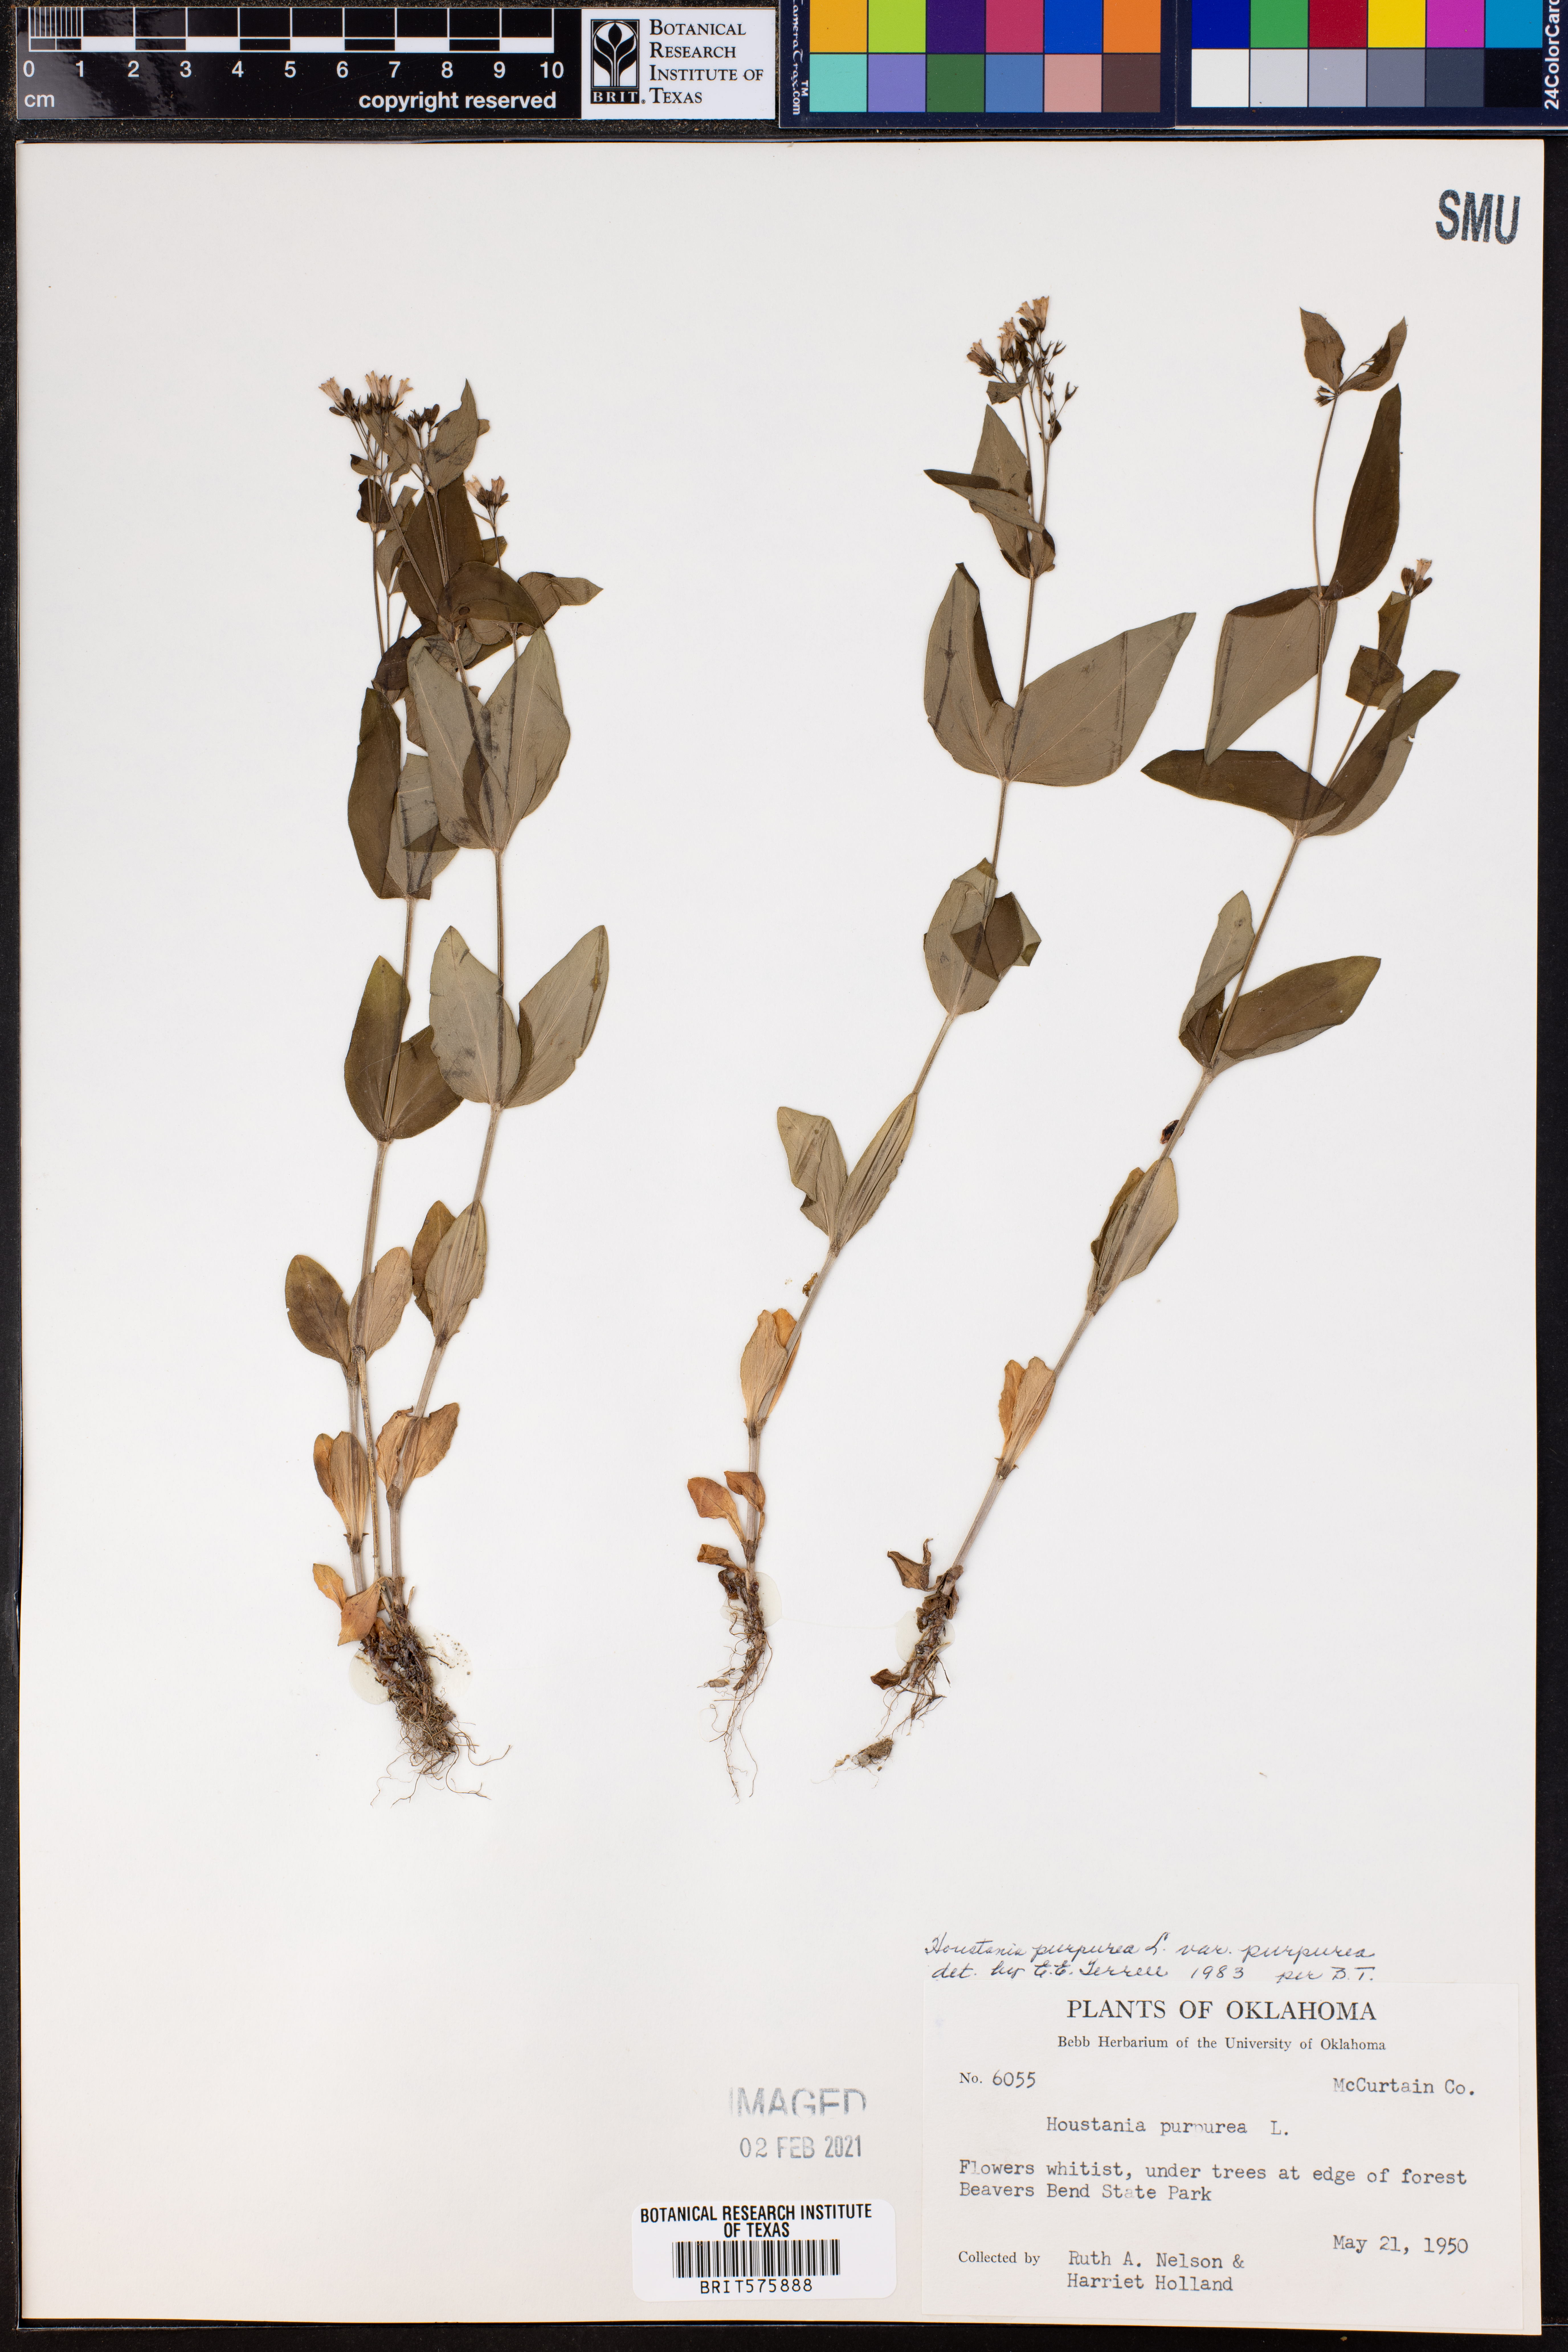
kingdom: Plantae
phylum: Tracheophyta
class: Magnoliopsida
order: Gentianales
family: Rubiaceae
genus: Houstonia
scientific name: Houstonia purpurea
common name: Summer bluet
